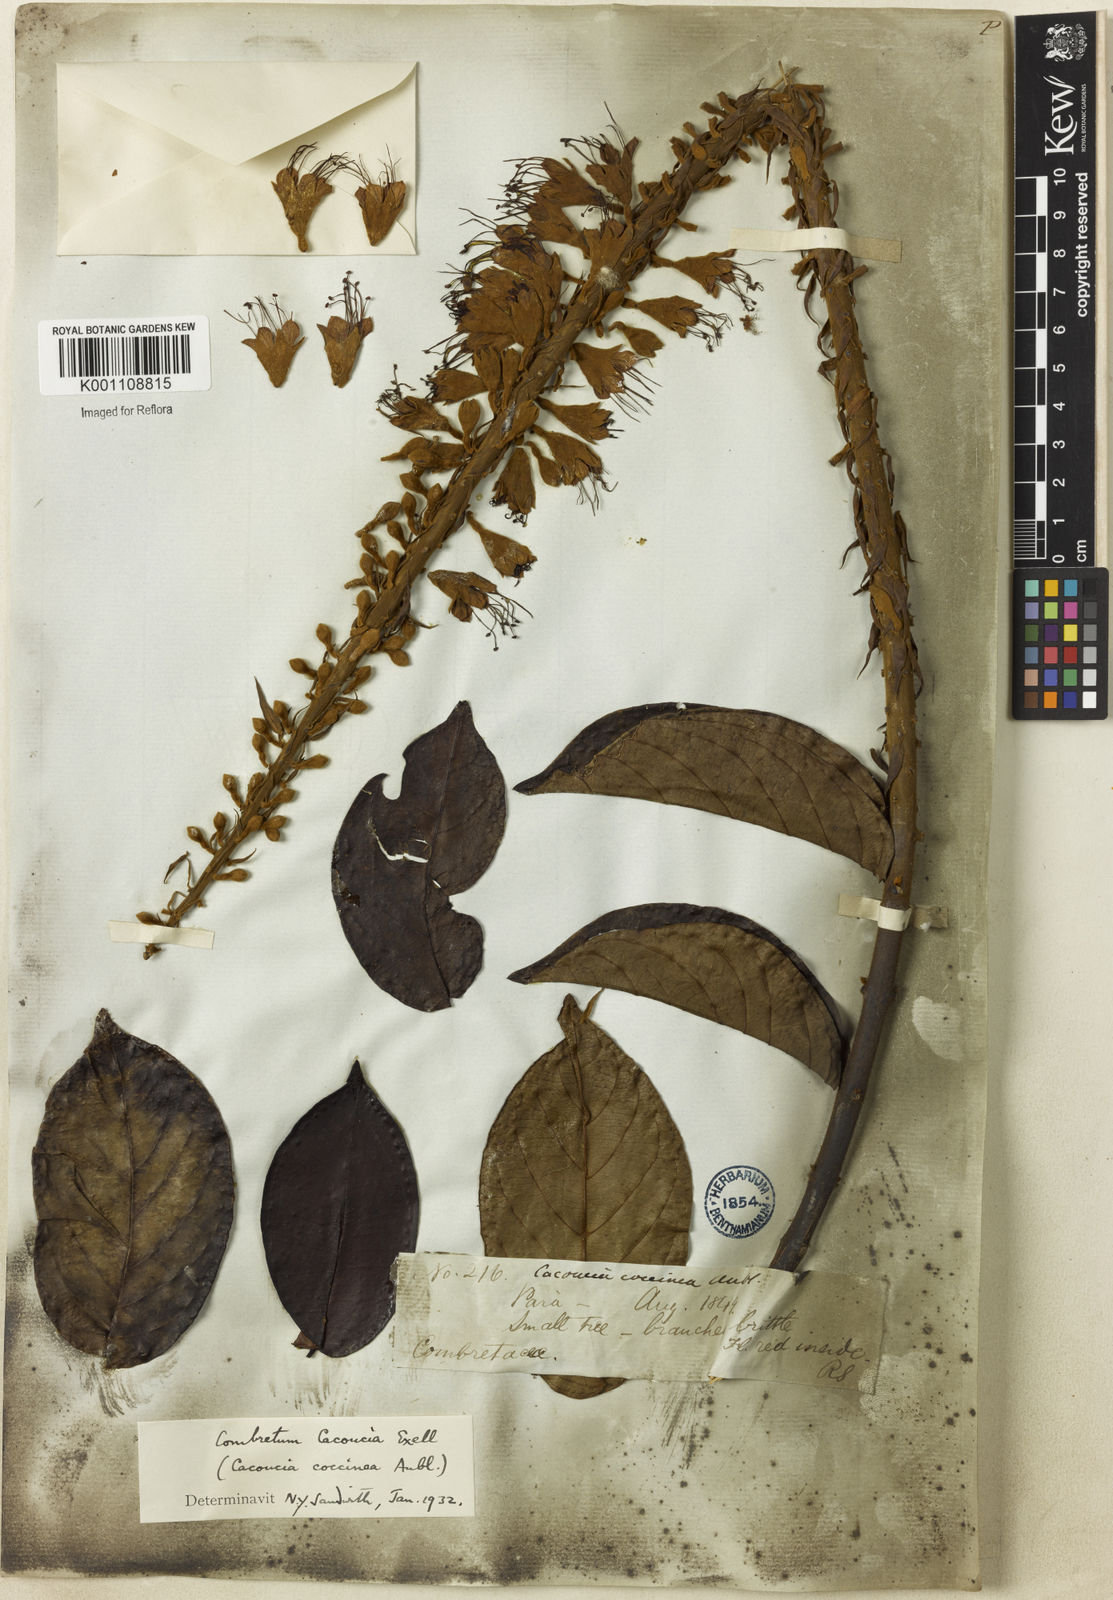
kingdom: Plantae
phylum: Tracheophyta
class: Magnoliopsida
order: Myrtales
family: Combretaceae
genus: Combretum
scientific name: Combretum
